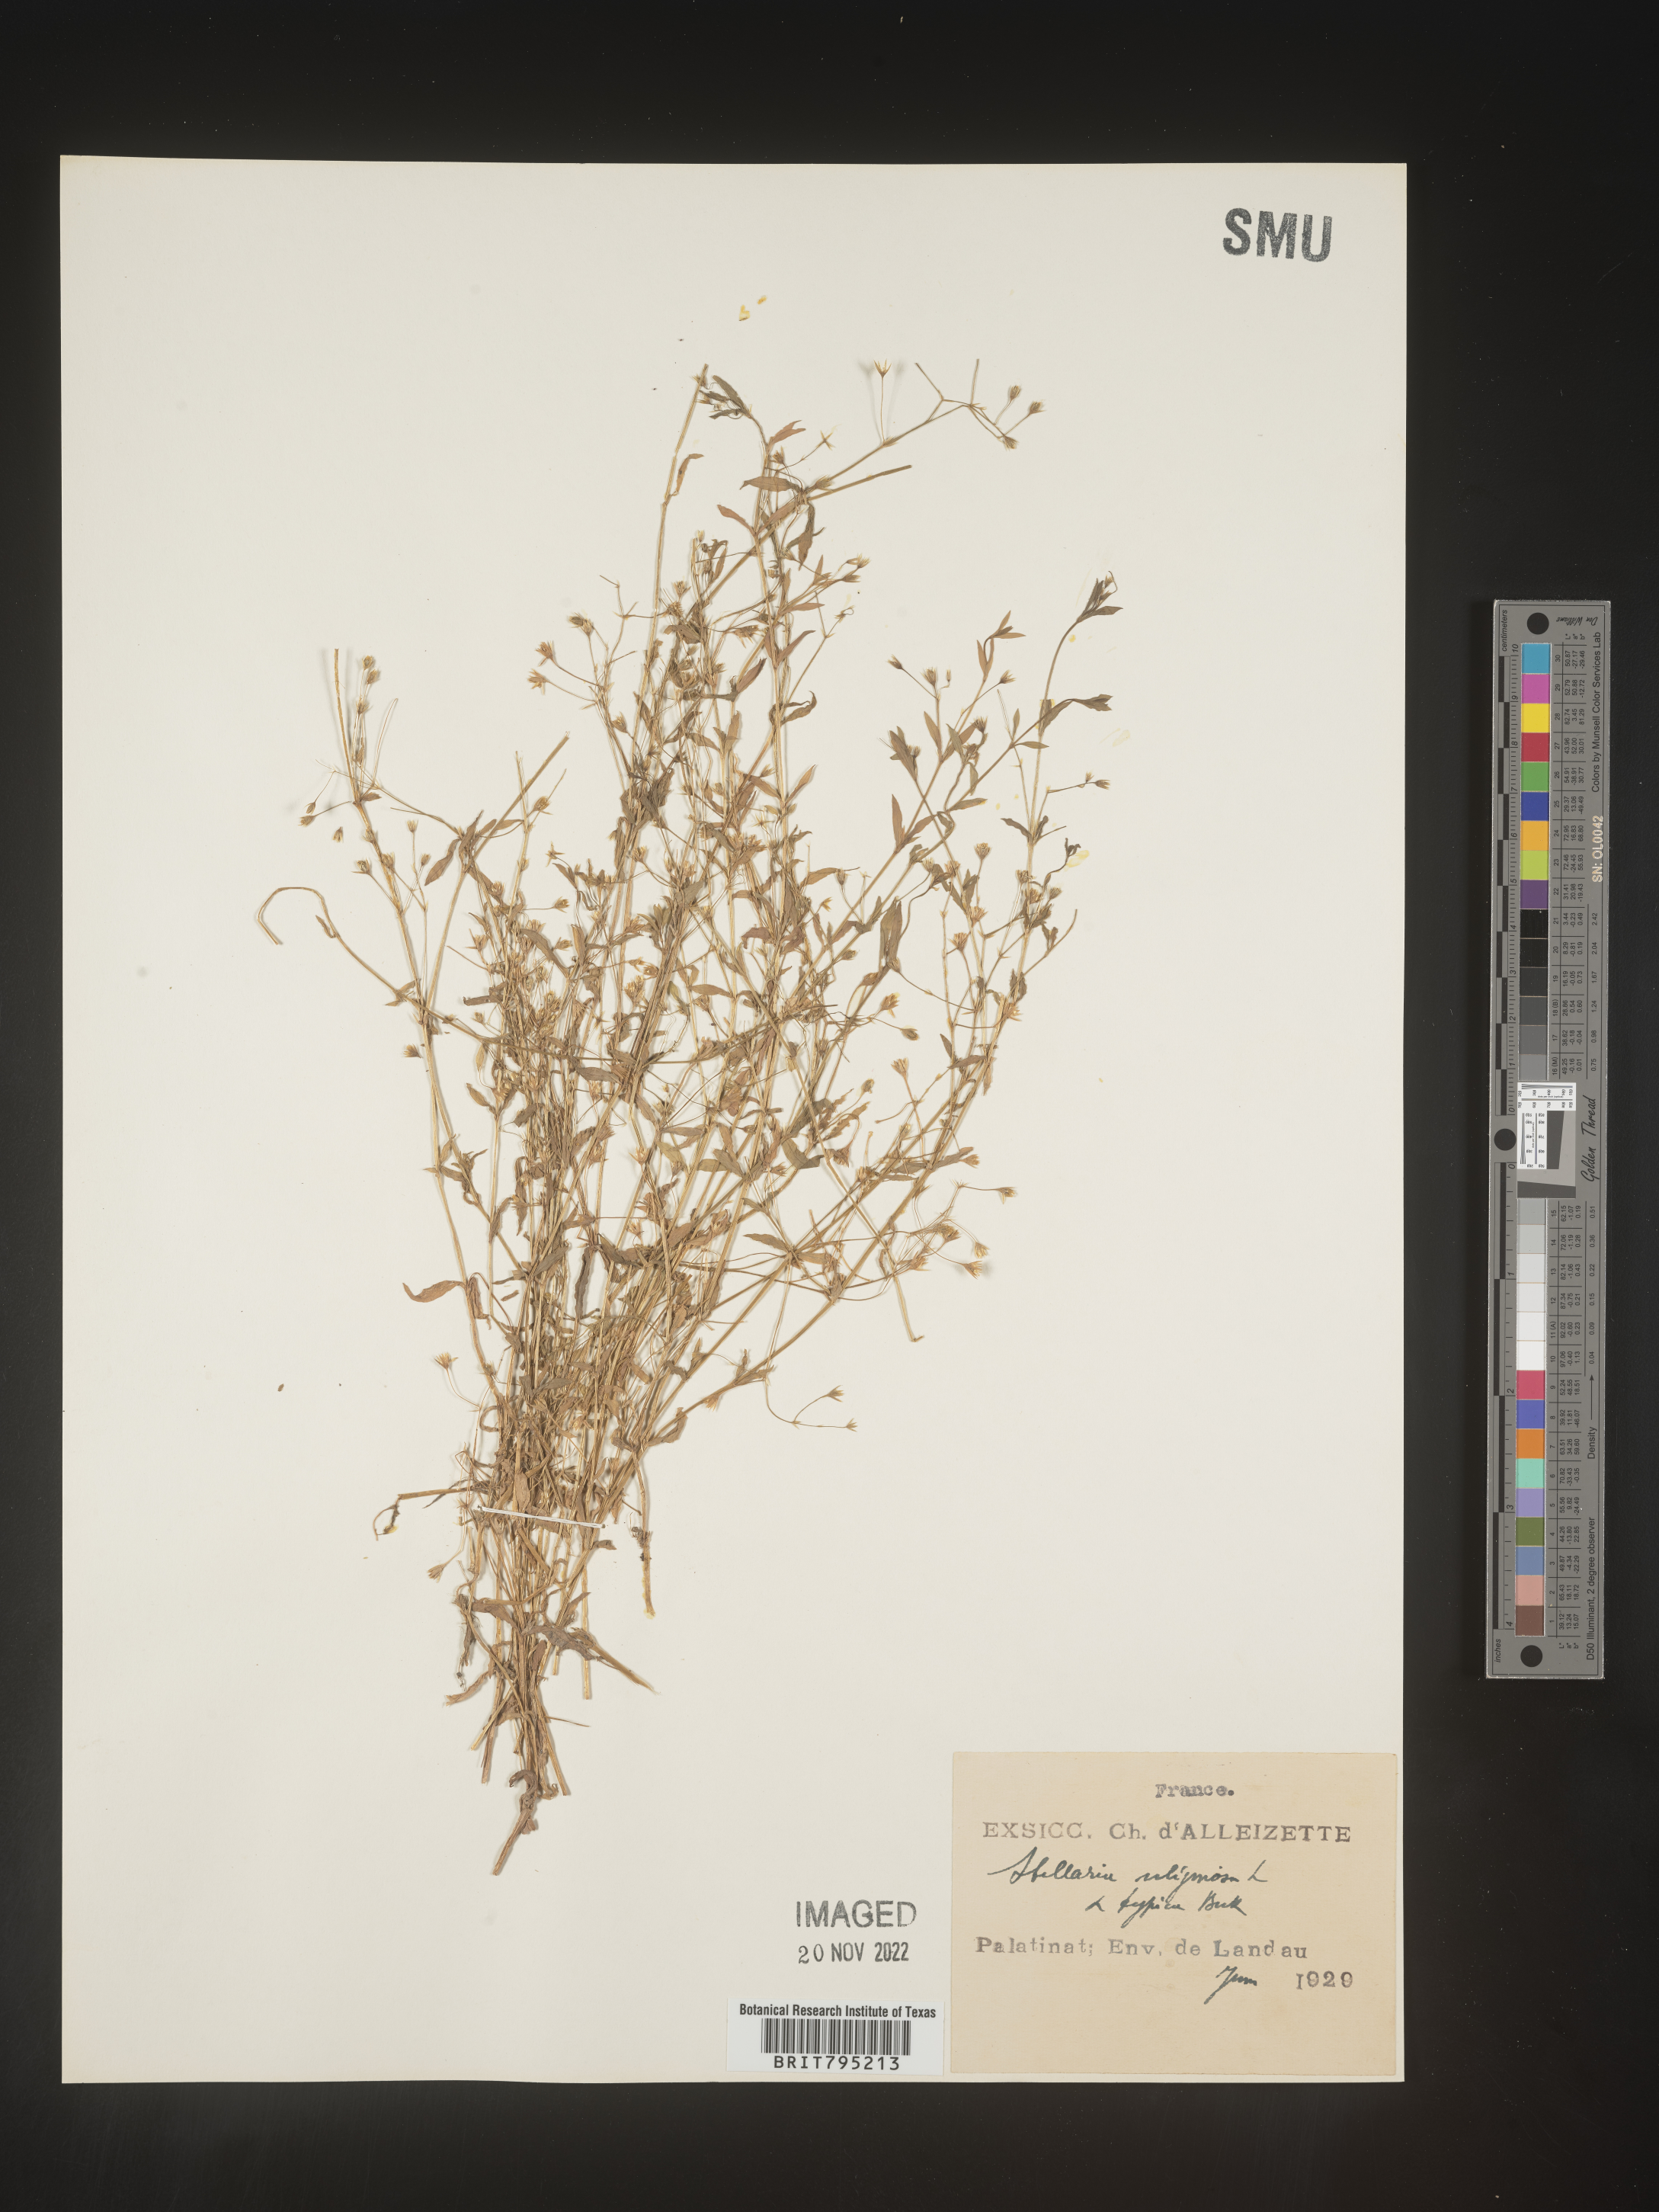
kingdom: Plantae
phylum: Tracheophyta
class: Magnoliopsida
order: Caryophyllales
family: Caryophyllaceae
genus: Stellaria
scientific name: Stellaria
